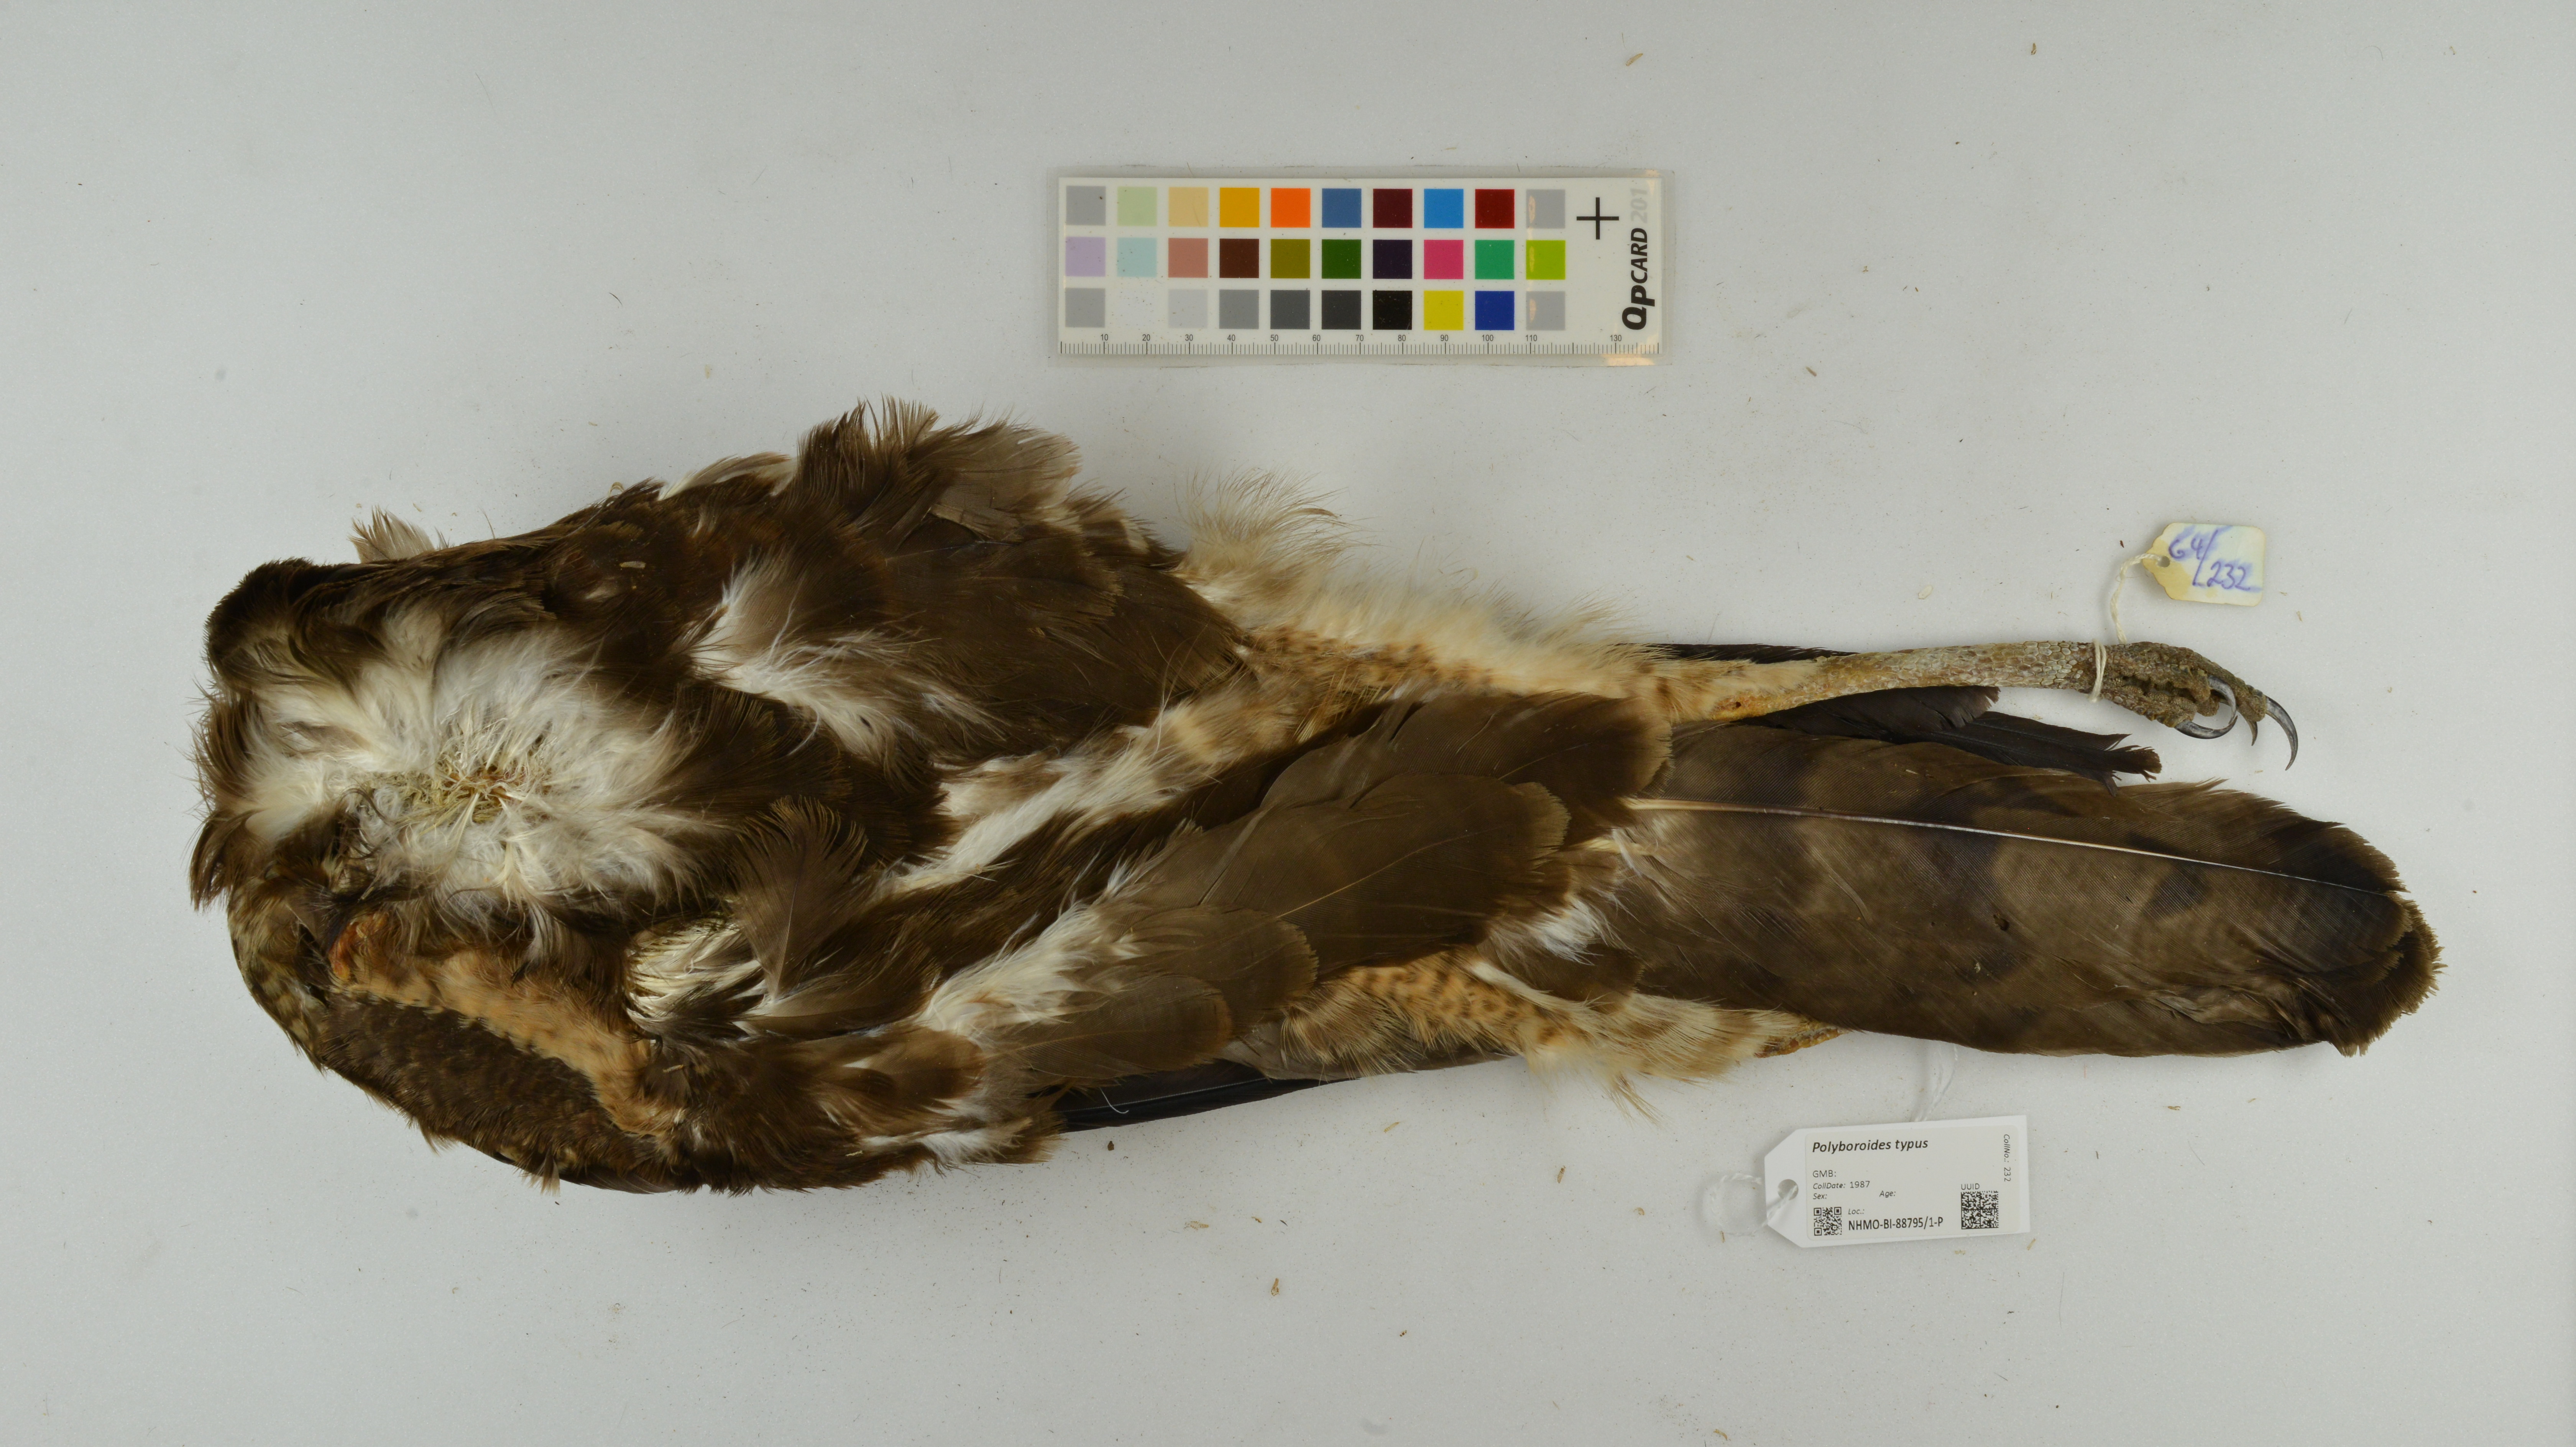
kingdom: Animalia
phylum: Chordata
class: Aves
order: Accipitriformes
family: Accipitridae
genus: Polyboroides
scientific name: Polyboroides typus
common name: African harrier-hawk
